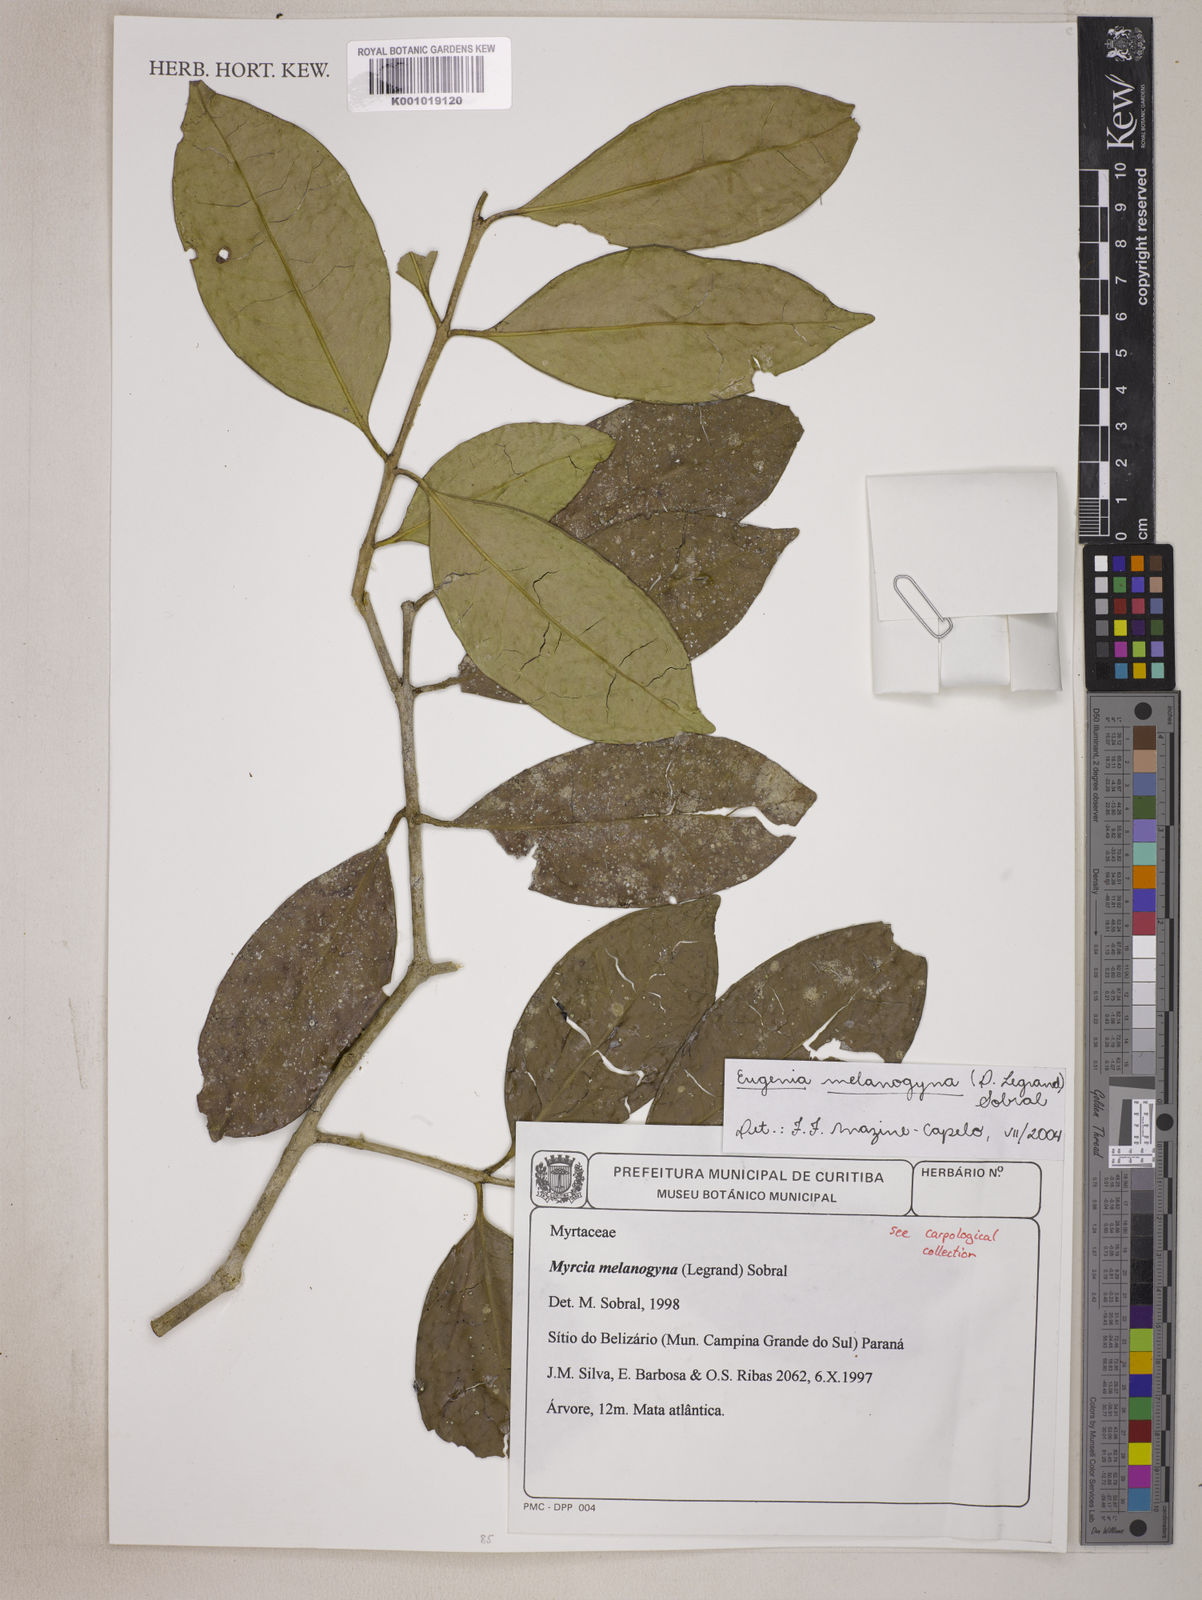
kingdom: Plantae
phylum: Tracheophyta
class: Magnoliopsida
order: Myrtales
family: Myrtaceae
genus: Eugenia
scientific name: Eugenia melanogyna
